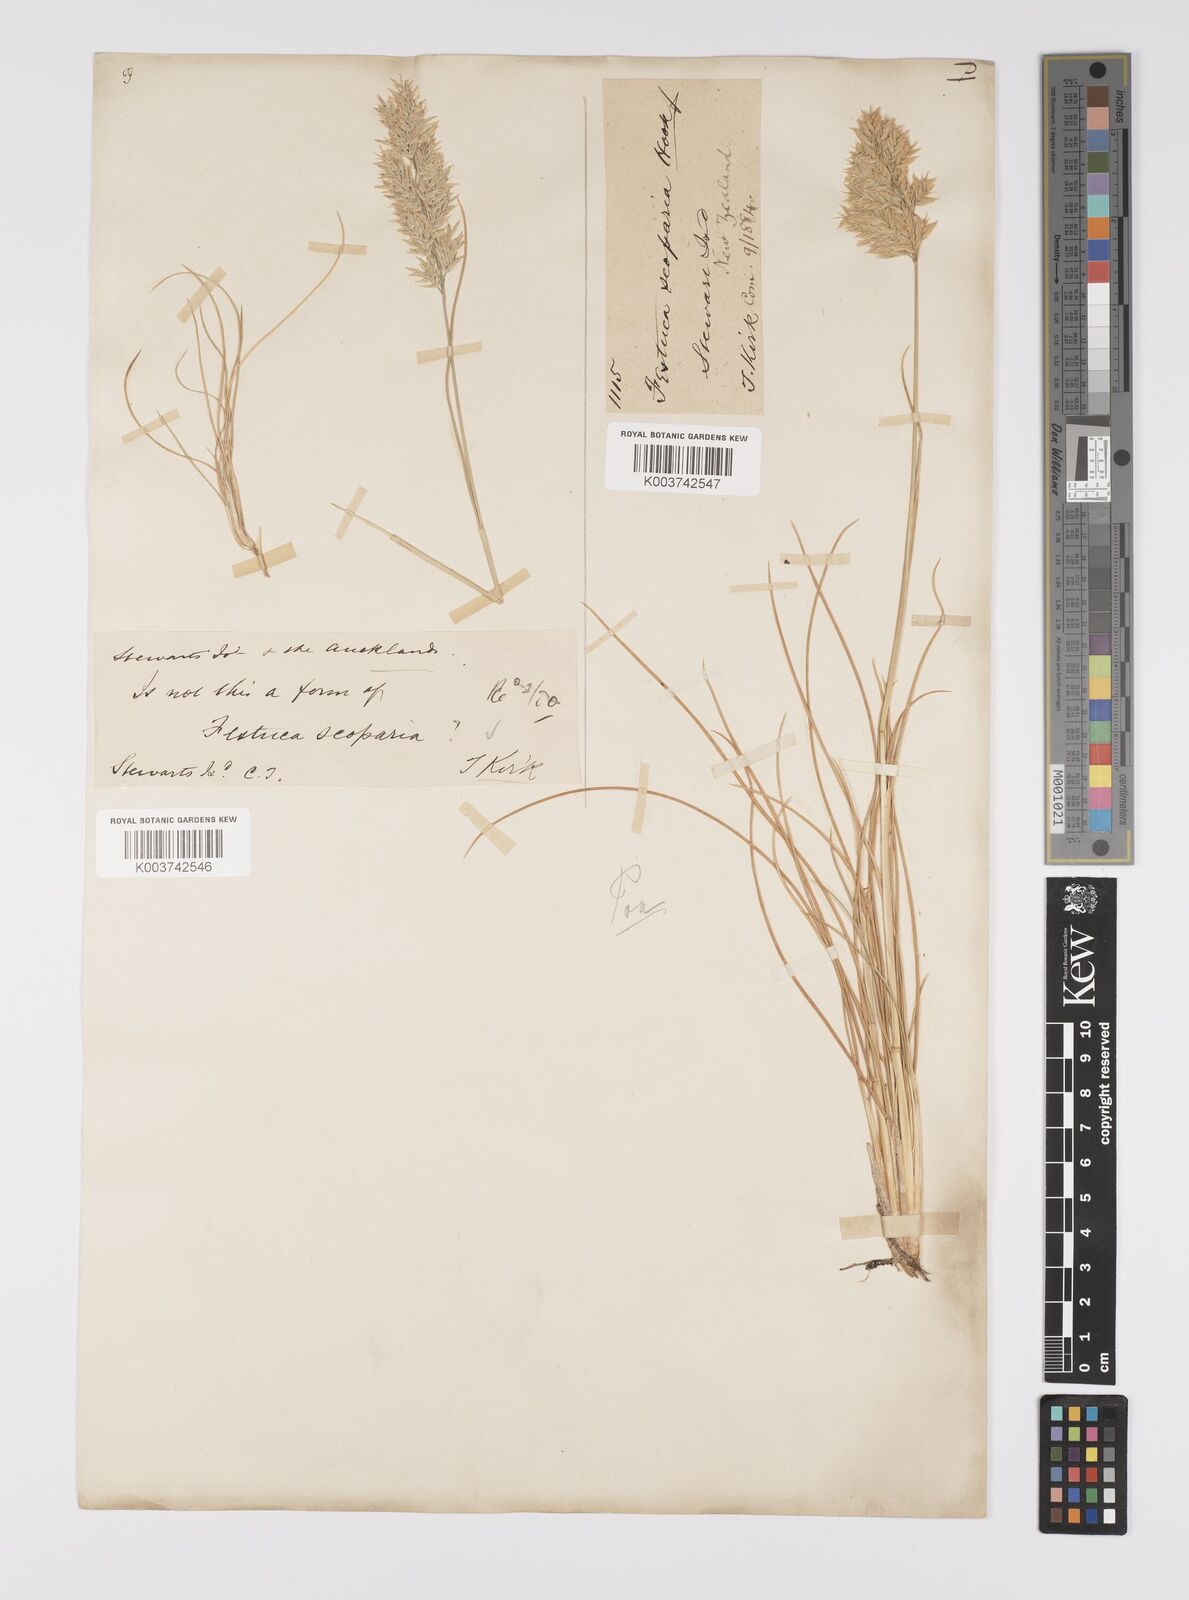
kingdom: Plantae
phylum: Tracheophyta
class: Liliopsida
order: Poales
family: Poaceae
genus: Poa
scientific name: Poa astonii
